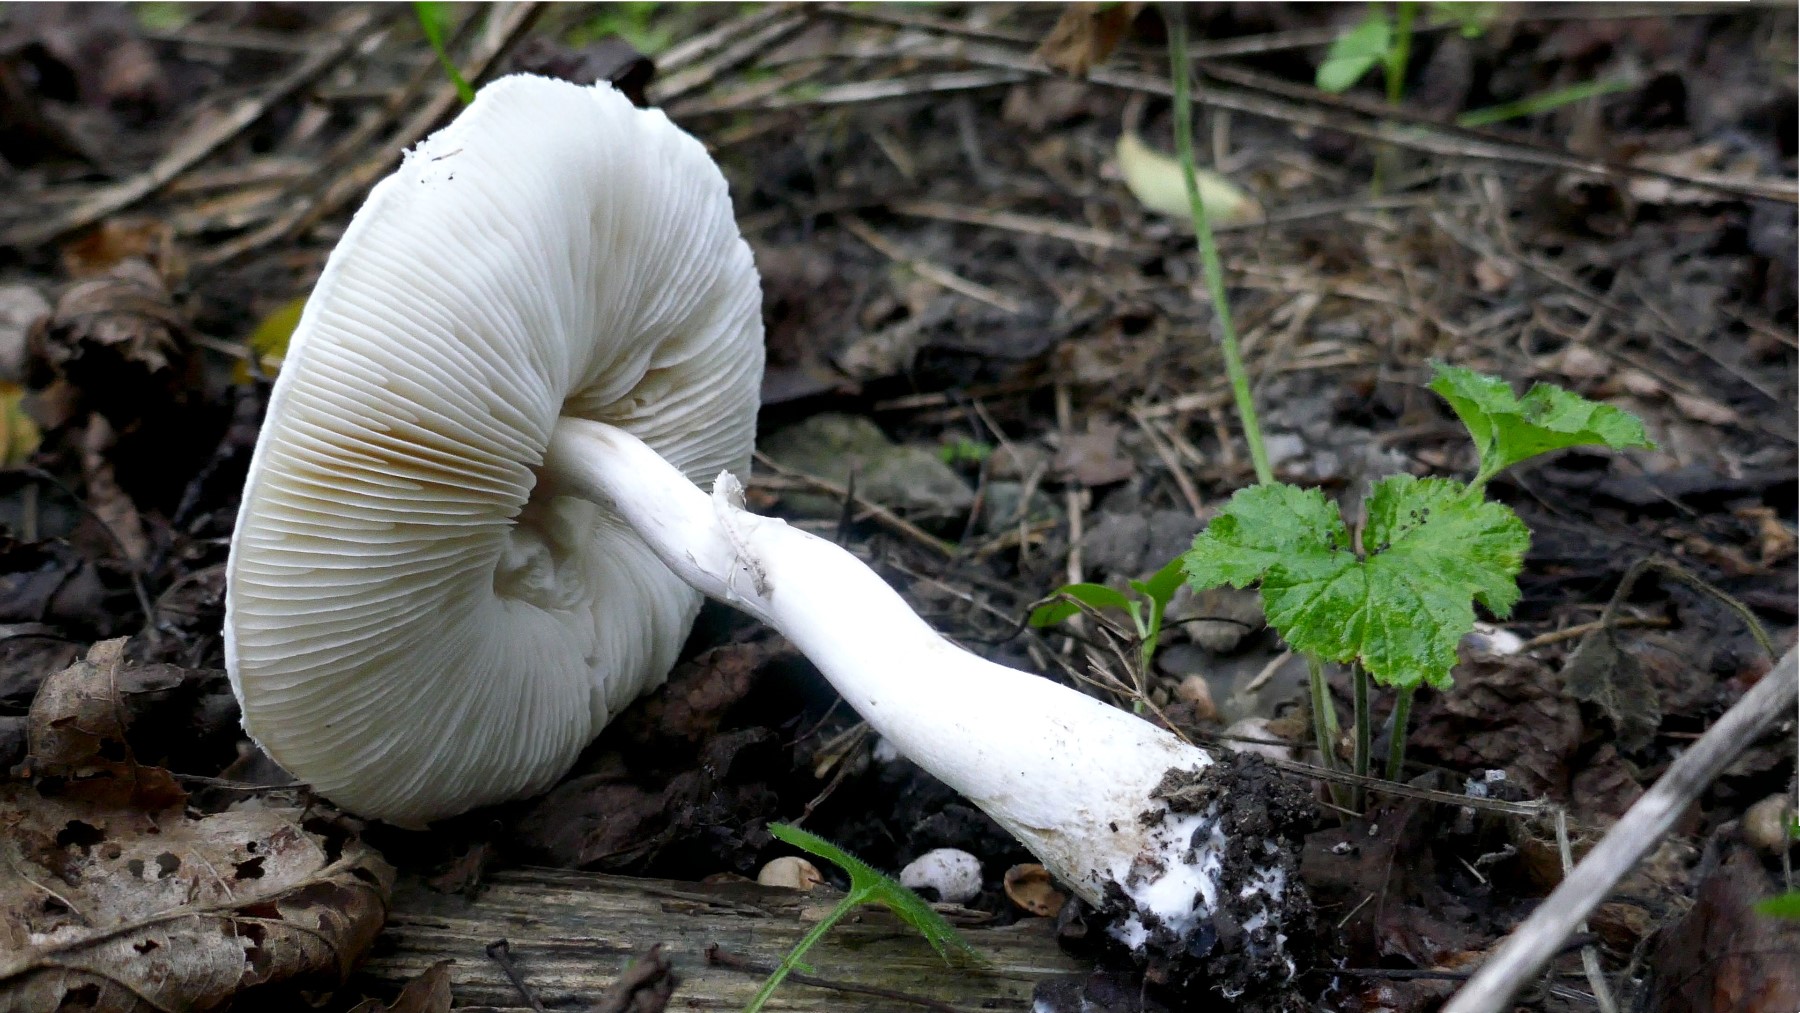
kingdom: Fungi
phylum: Basidiomycota
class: Agaricomycetes
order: Agaricales
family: Agaricaceae
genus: Leucoagaricus
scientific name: Leucoagaricus leucothites
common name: rosabladet silkehat
